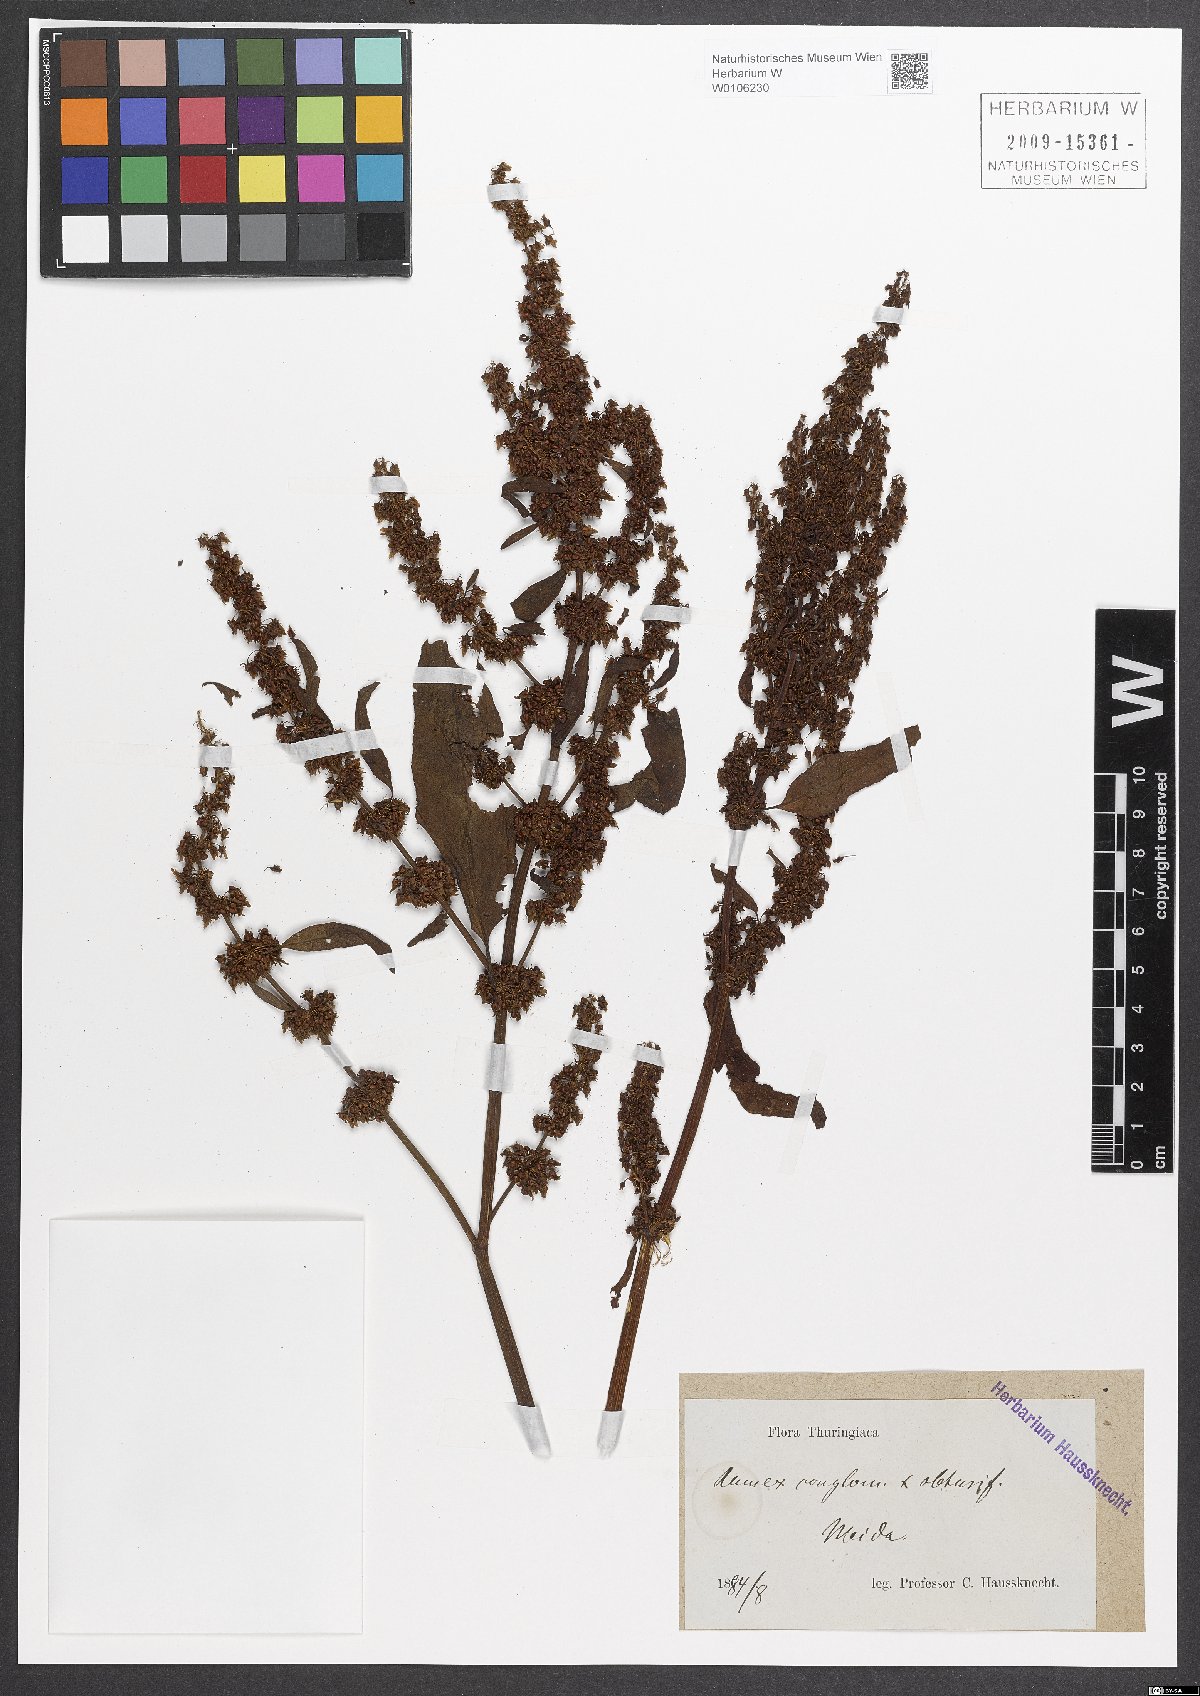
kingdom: Plantae
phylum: Tracheophyta
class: Magnoliopsida
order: Caryophyllales
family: Polygonaceae
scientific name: Polygonaceae
